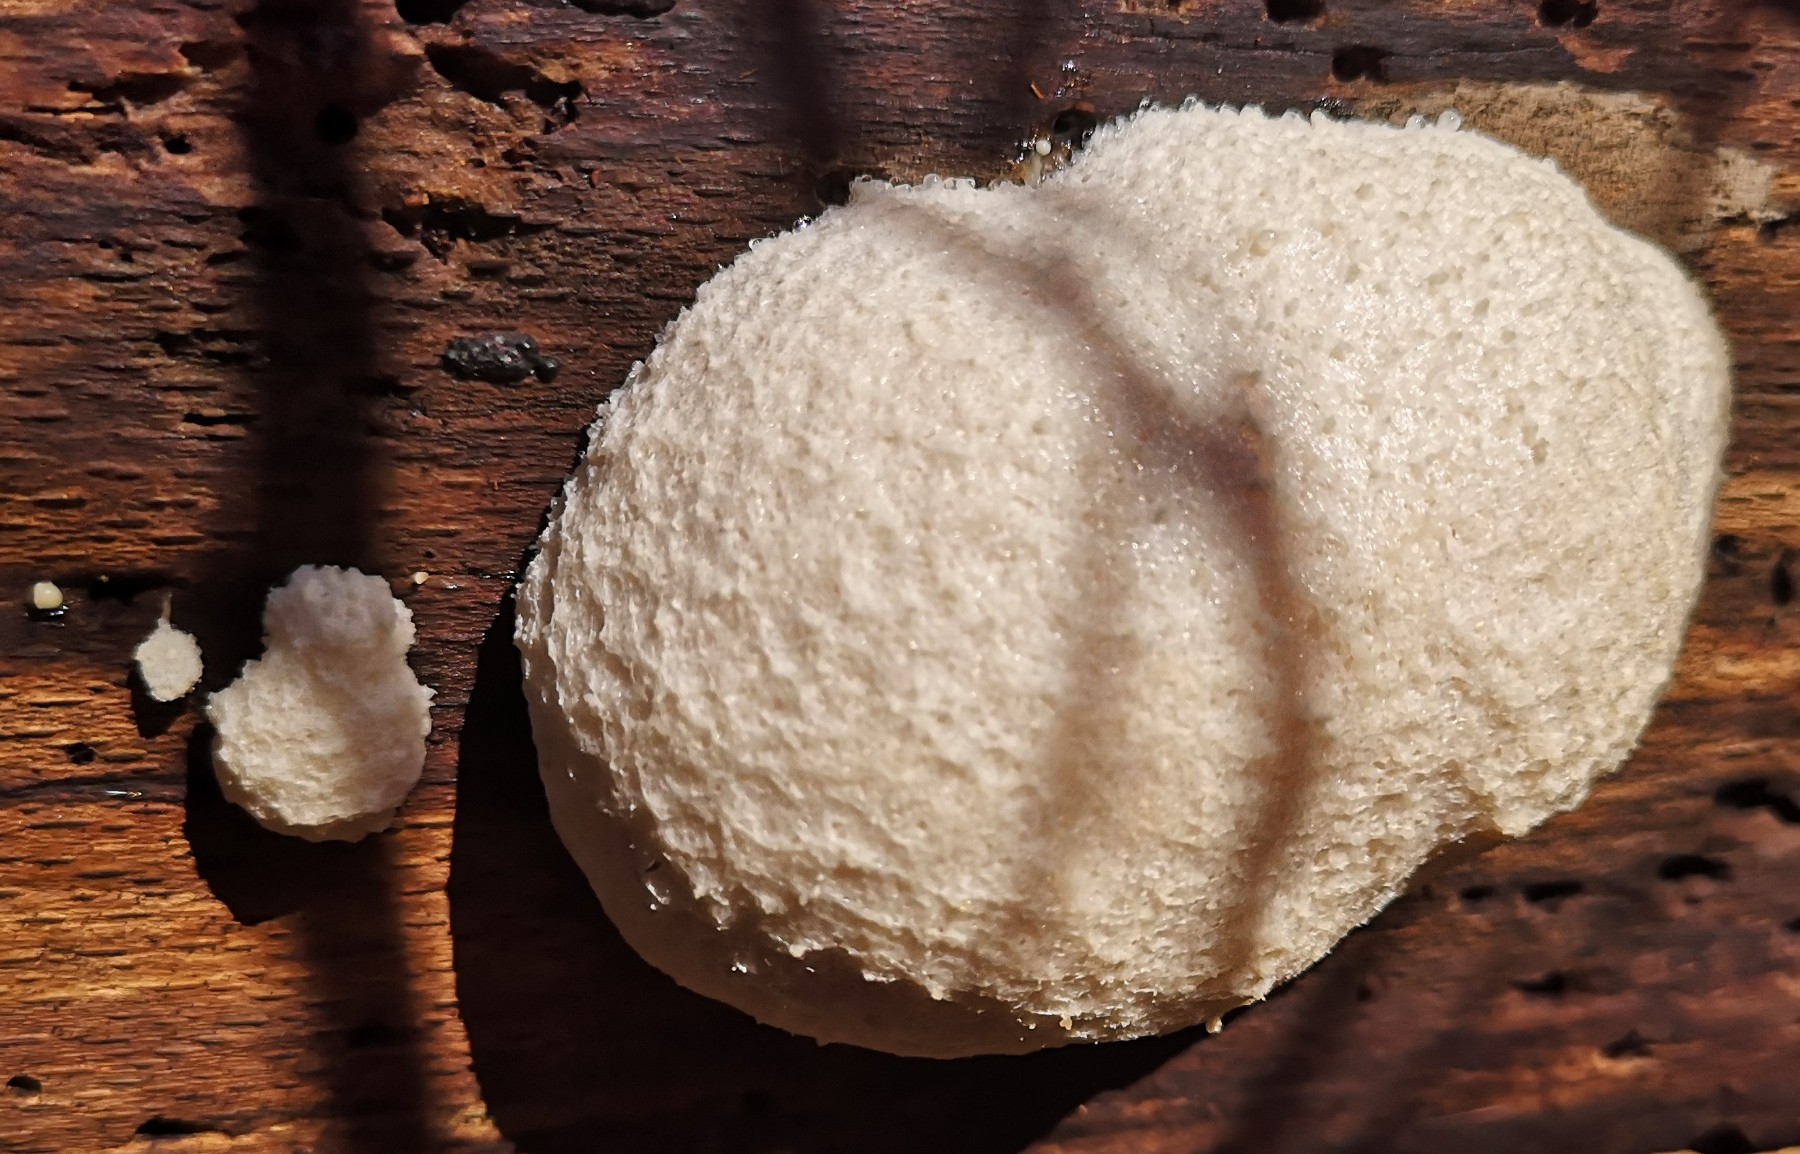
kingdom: Protozoa
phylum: Mycetozoa
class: Myxomycetes
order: Cribrariales
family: Tubiferaceae
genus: Reticularia
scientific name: Reticularia lycoperdon
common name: skinnende støvpude
